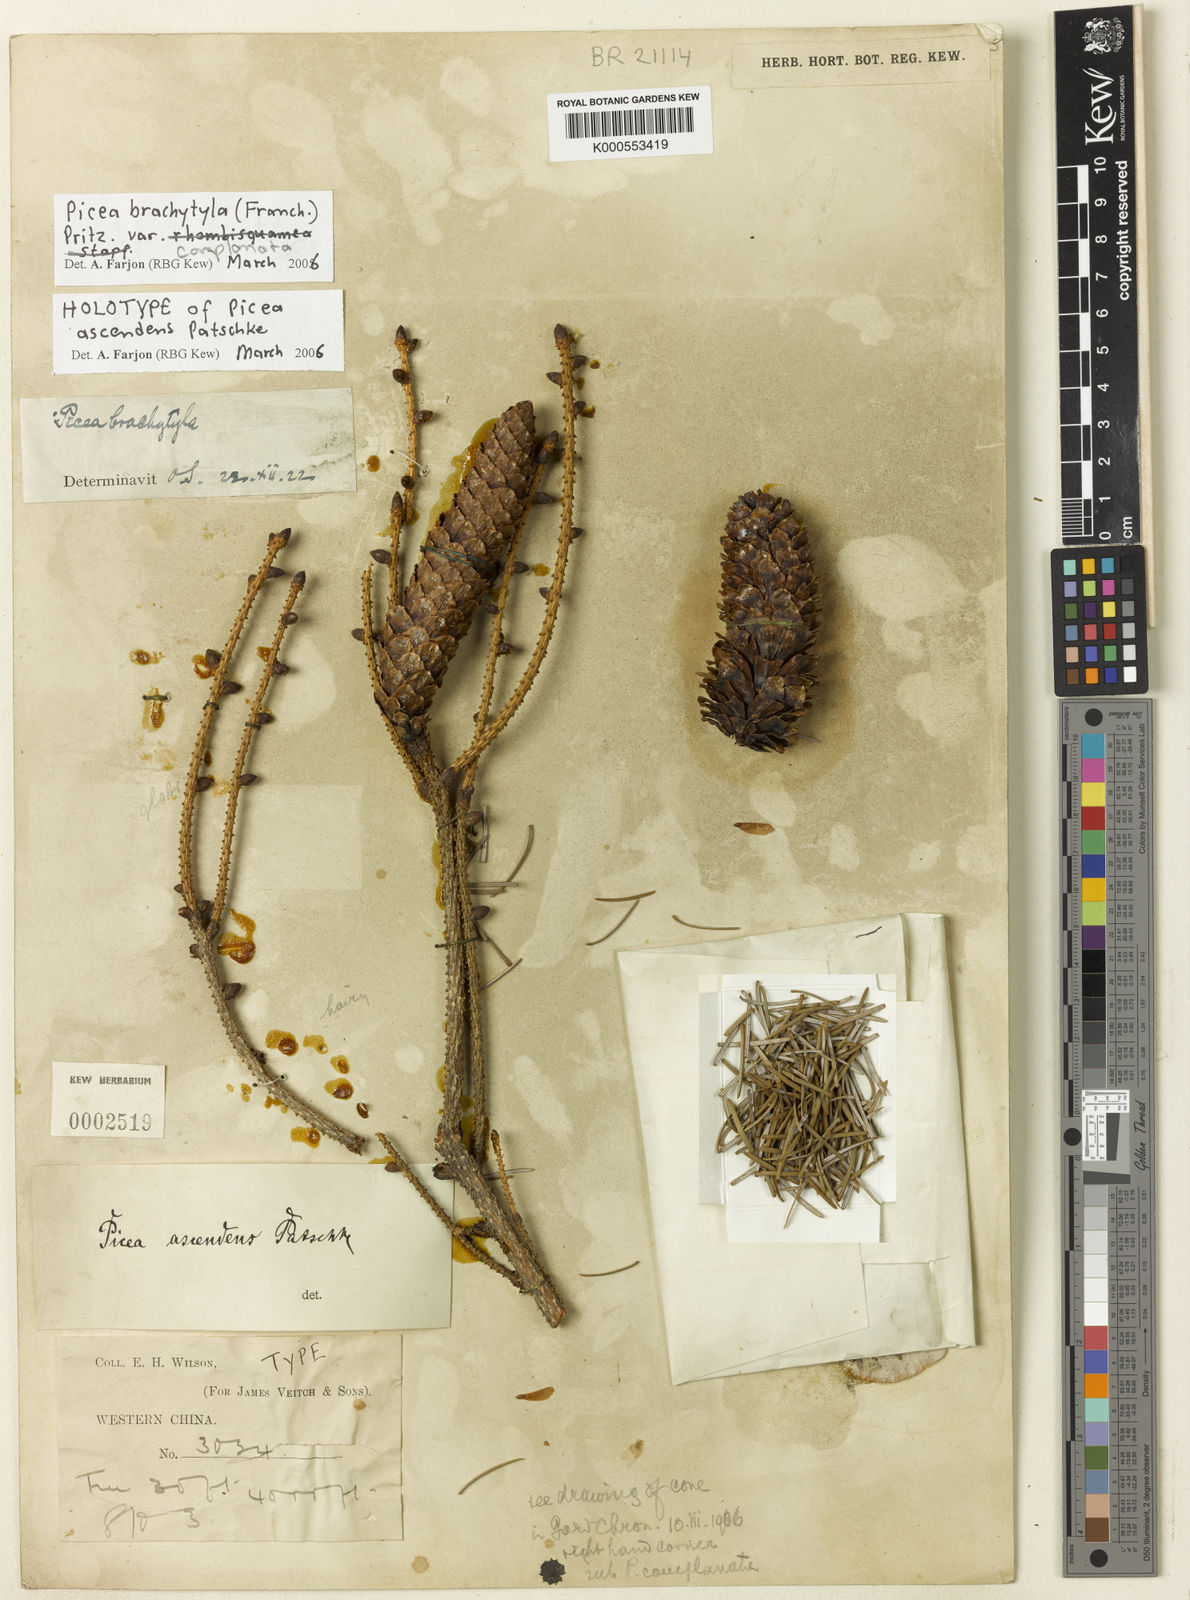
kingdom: Plantae
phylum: Tracheophyta
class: Pinopsida
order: Pinales
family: Pinaceae
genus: Picea
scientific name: Picea brachytyla
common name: Sargent's spruce
